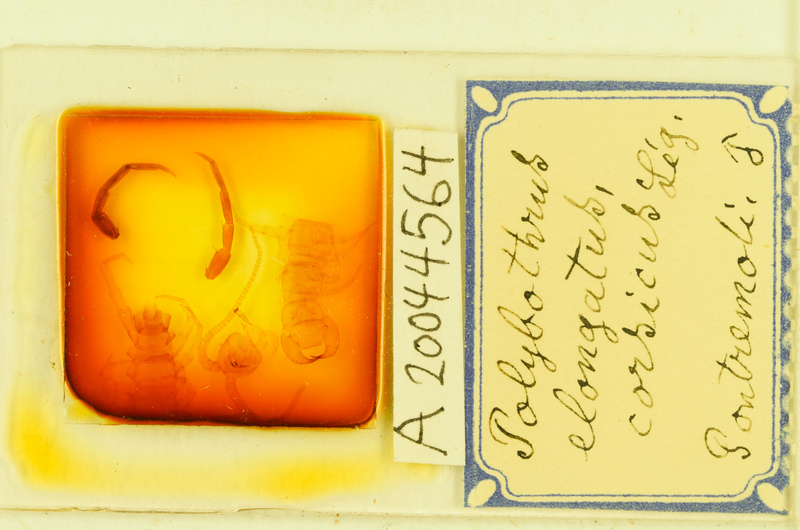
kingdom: Animalia
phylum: Arthropoda
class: Chilopoda
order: Lithobiomorpha
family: Lithobiidae
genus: Polybothrus
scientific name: Polybothrus
